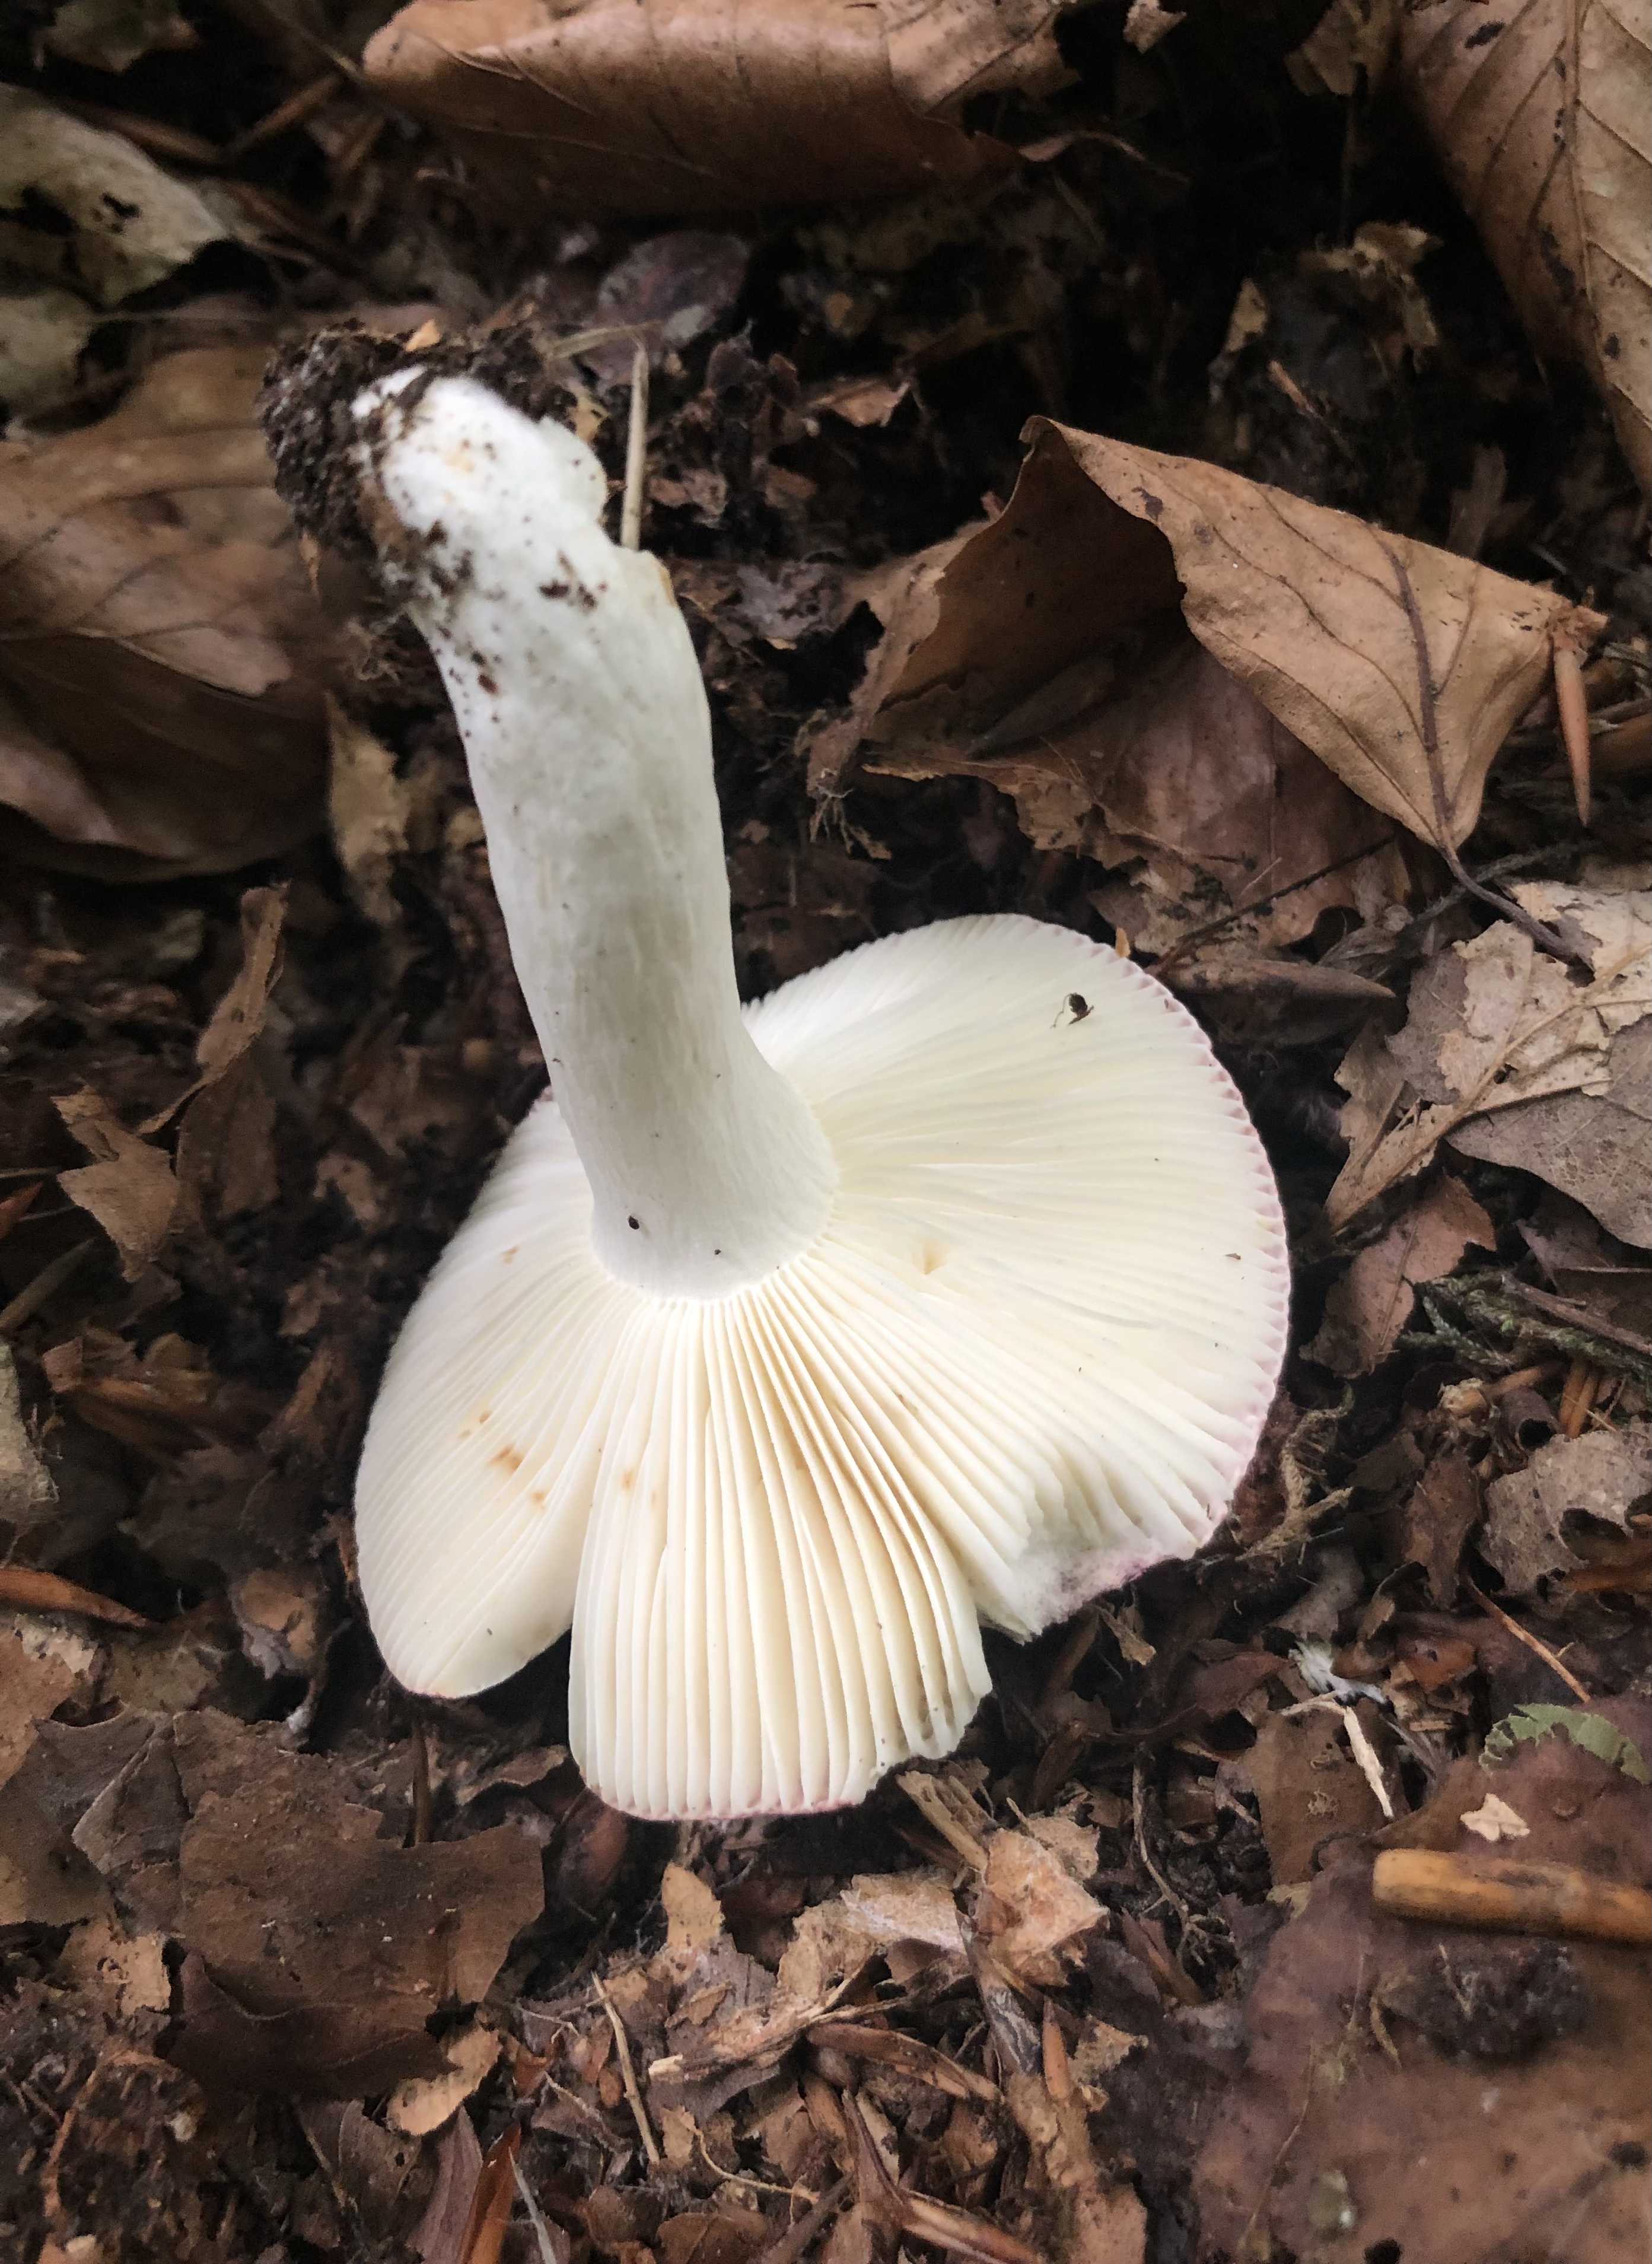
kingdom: Fungi
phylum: Basidiomycota
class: Agaricomycetes
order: Russulales
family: Russulaceae
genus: Russula
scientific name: Russula atropurpurea
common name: purpurbroget skørhat
